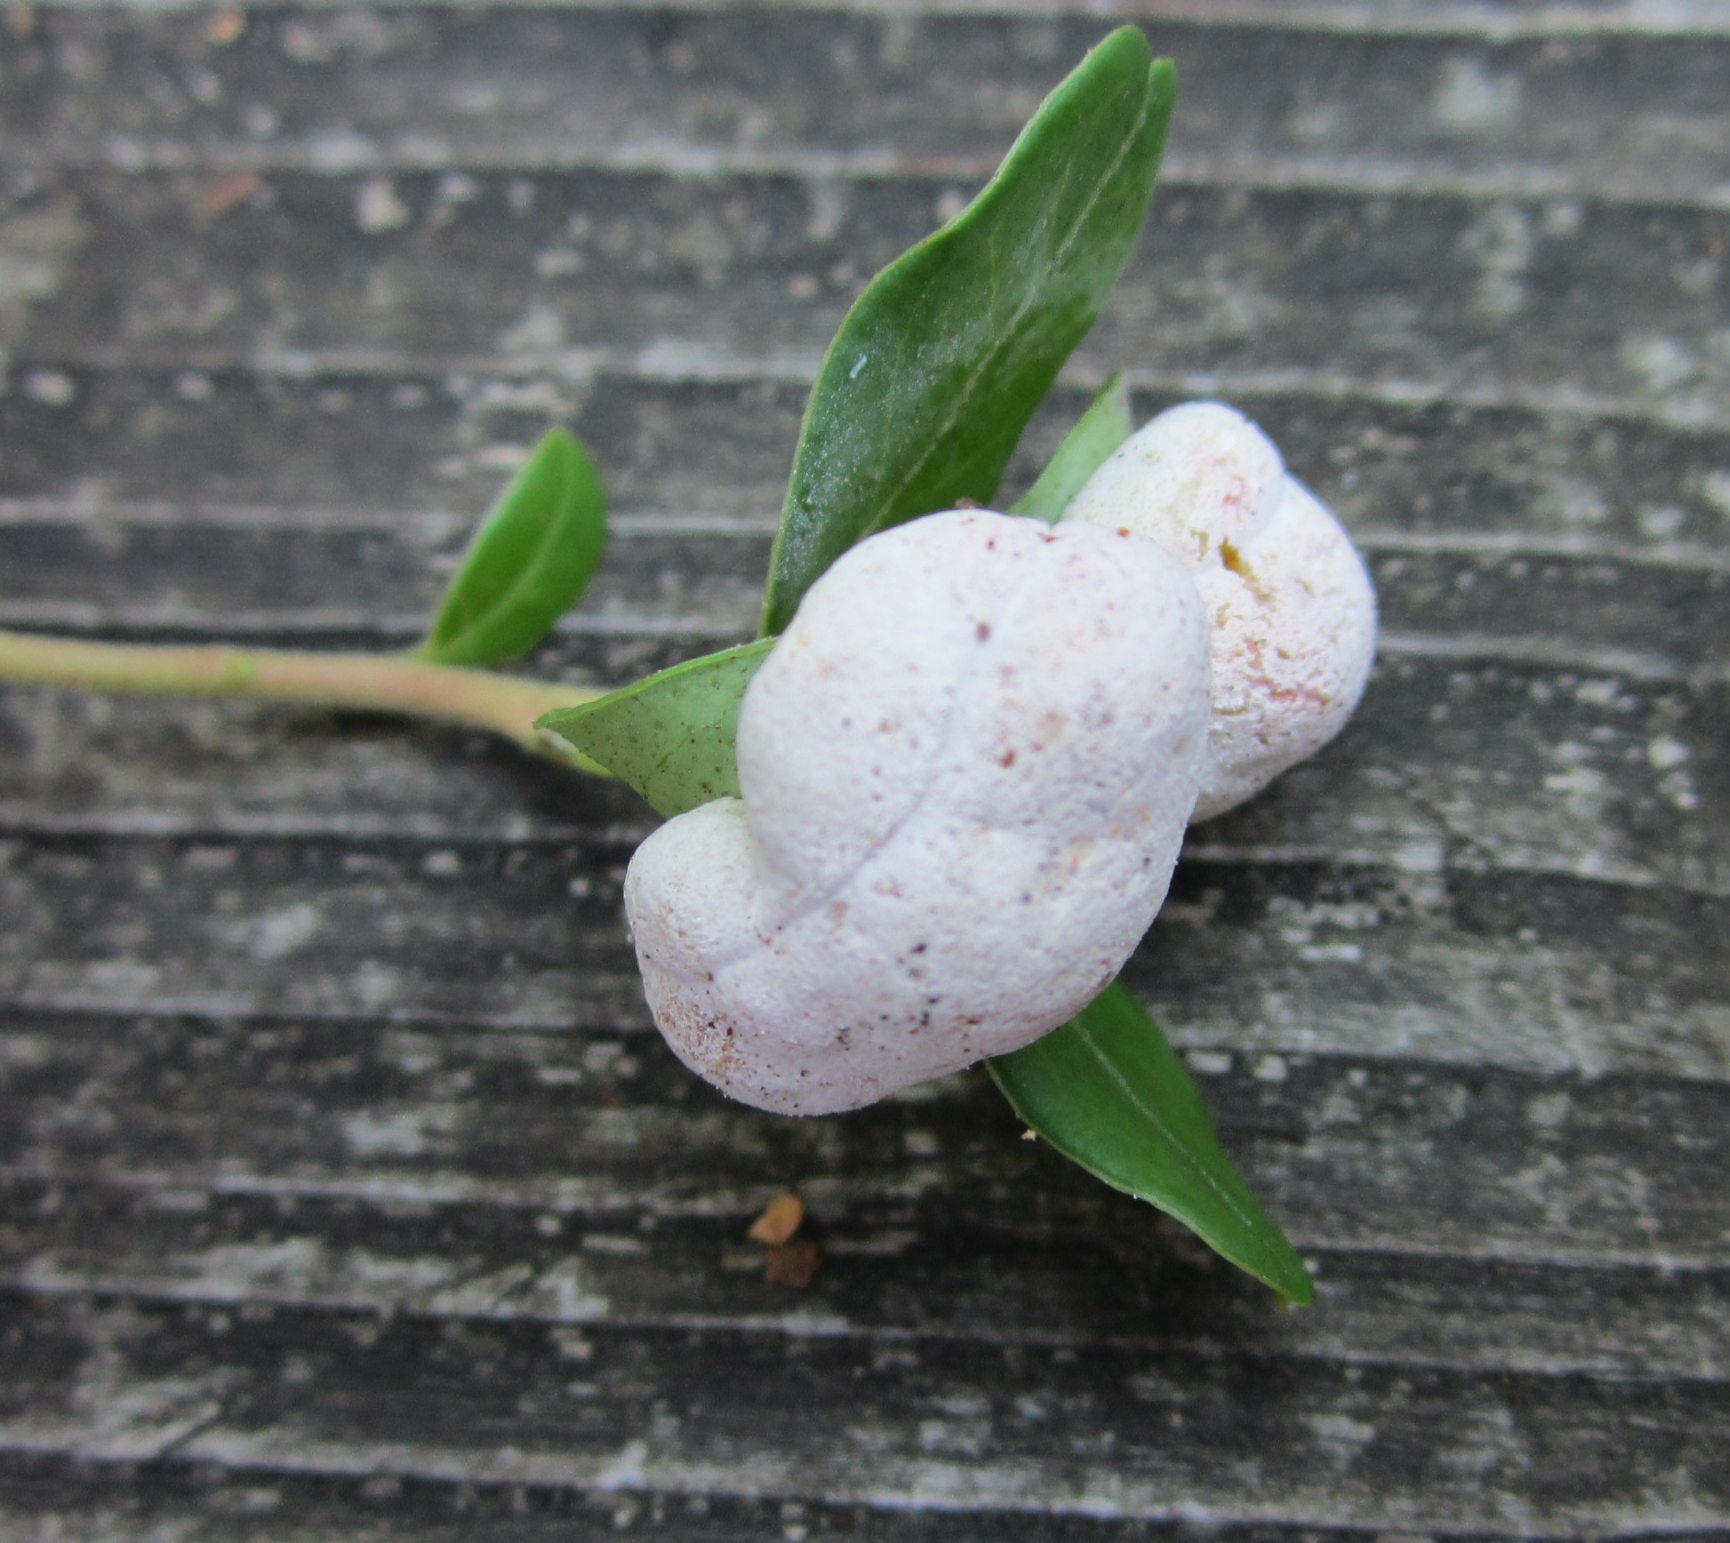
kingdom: Fungi
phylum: Basidiomycota
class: Exobasidiomycetes
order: Exobasidiales
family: Exobasidiaceae
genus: Exobasidium
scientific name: Exobasidium vaccinii
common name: tyttebærblad-bøllesvamp
